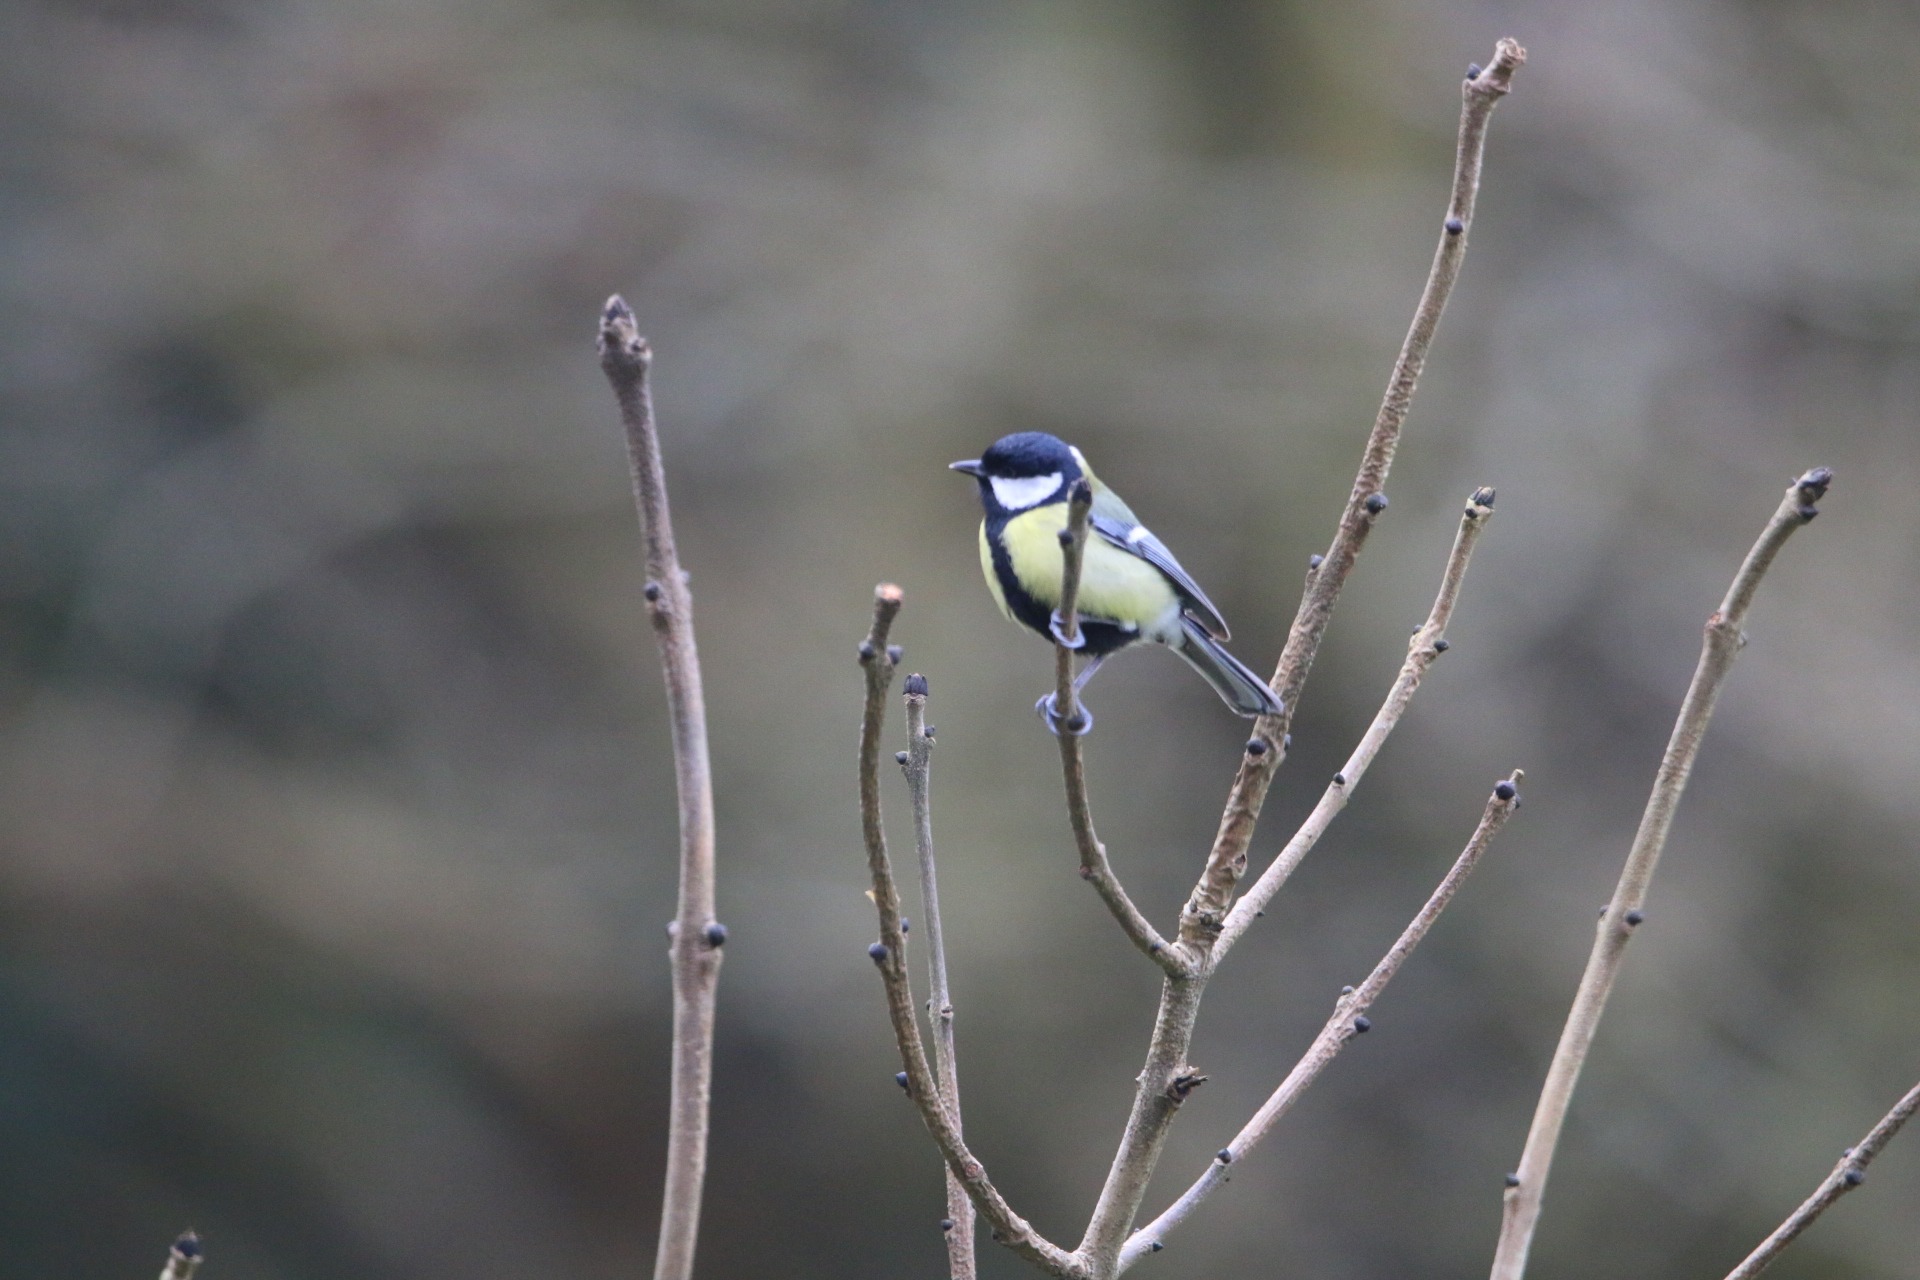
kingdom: Animalia
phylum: Chordata
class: Aves
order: Passeriformes
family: Paridae
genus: Parus
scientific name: Parus major
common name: Musvit
